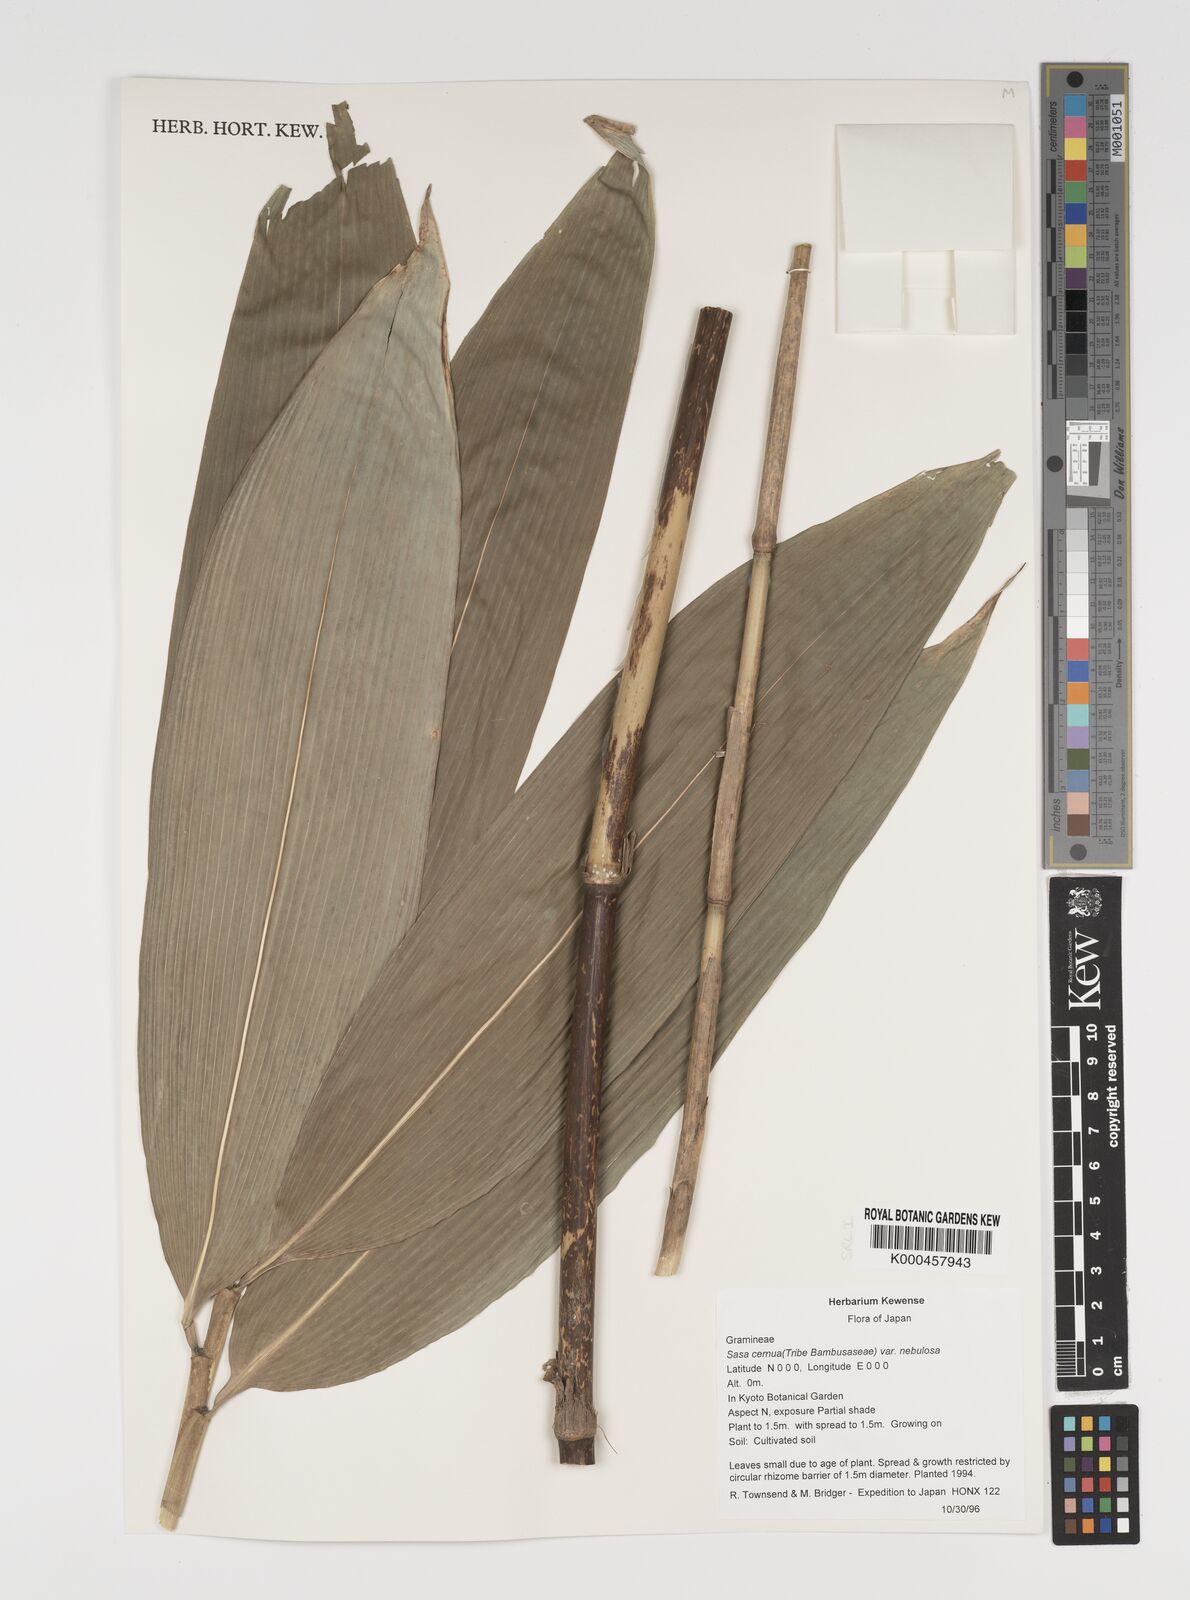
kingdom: Plantae
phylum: Tracheophyta
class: Liliopsida
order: Poales
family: Poaceae
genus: Sasa
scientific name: Sasa cernua
